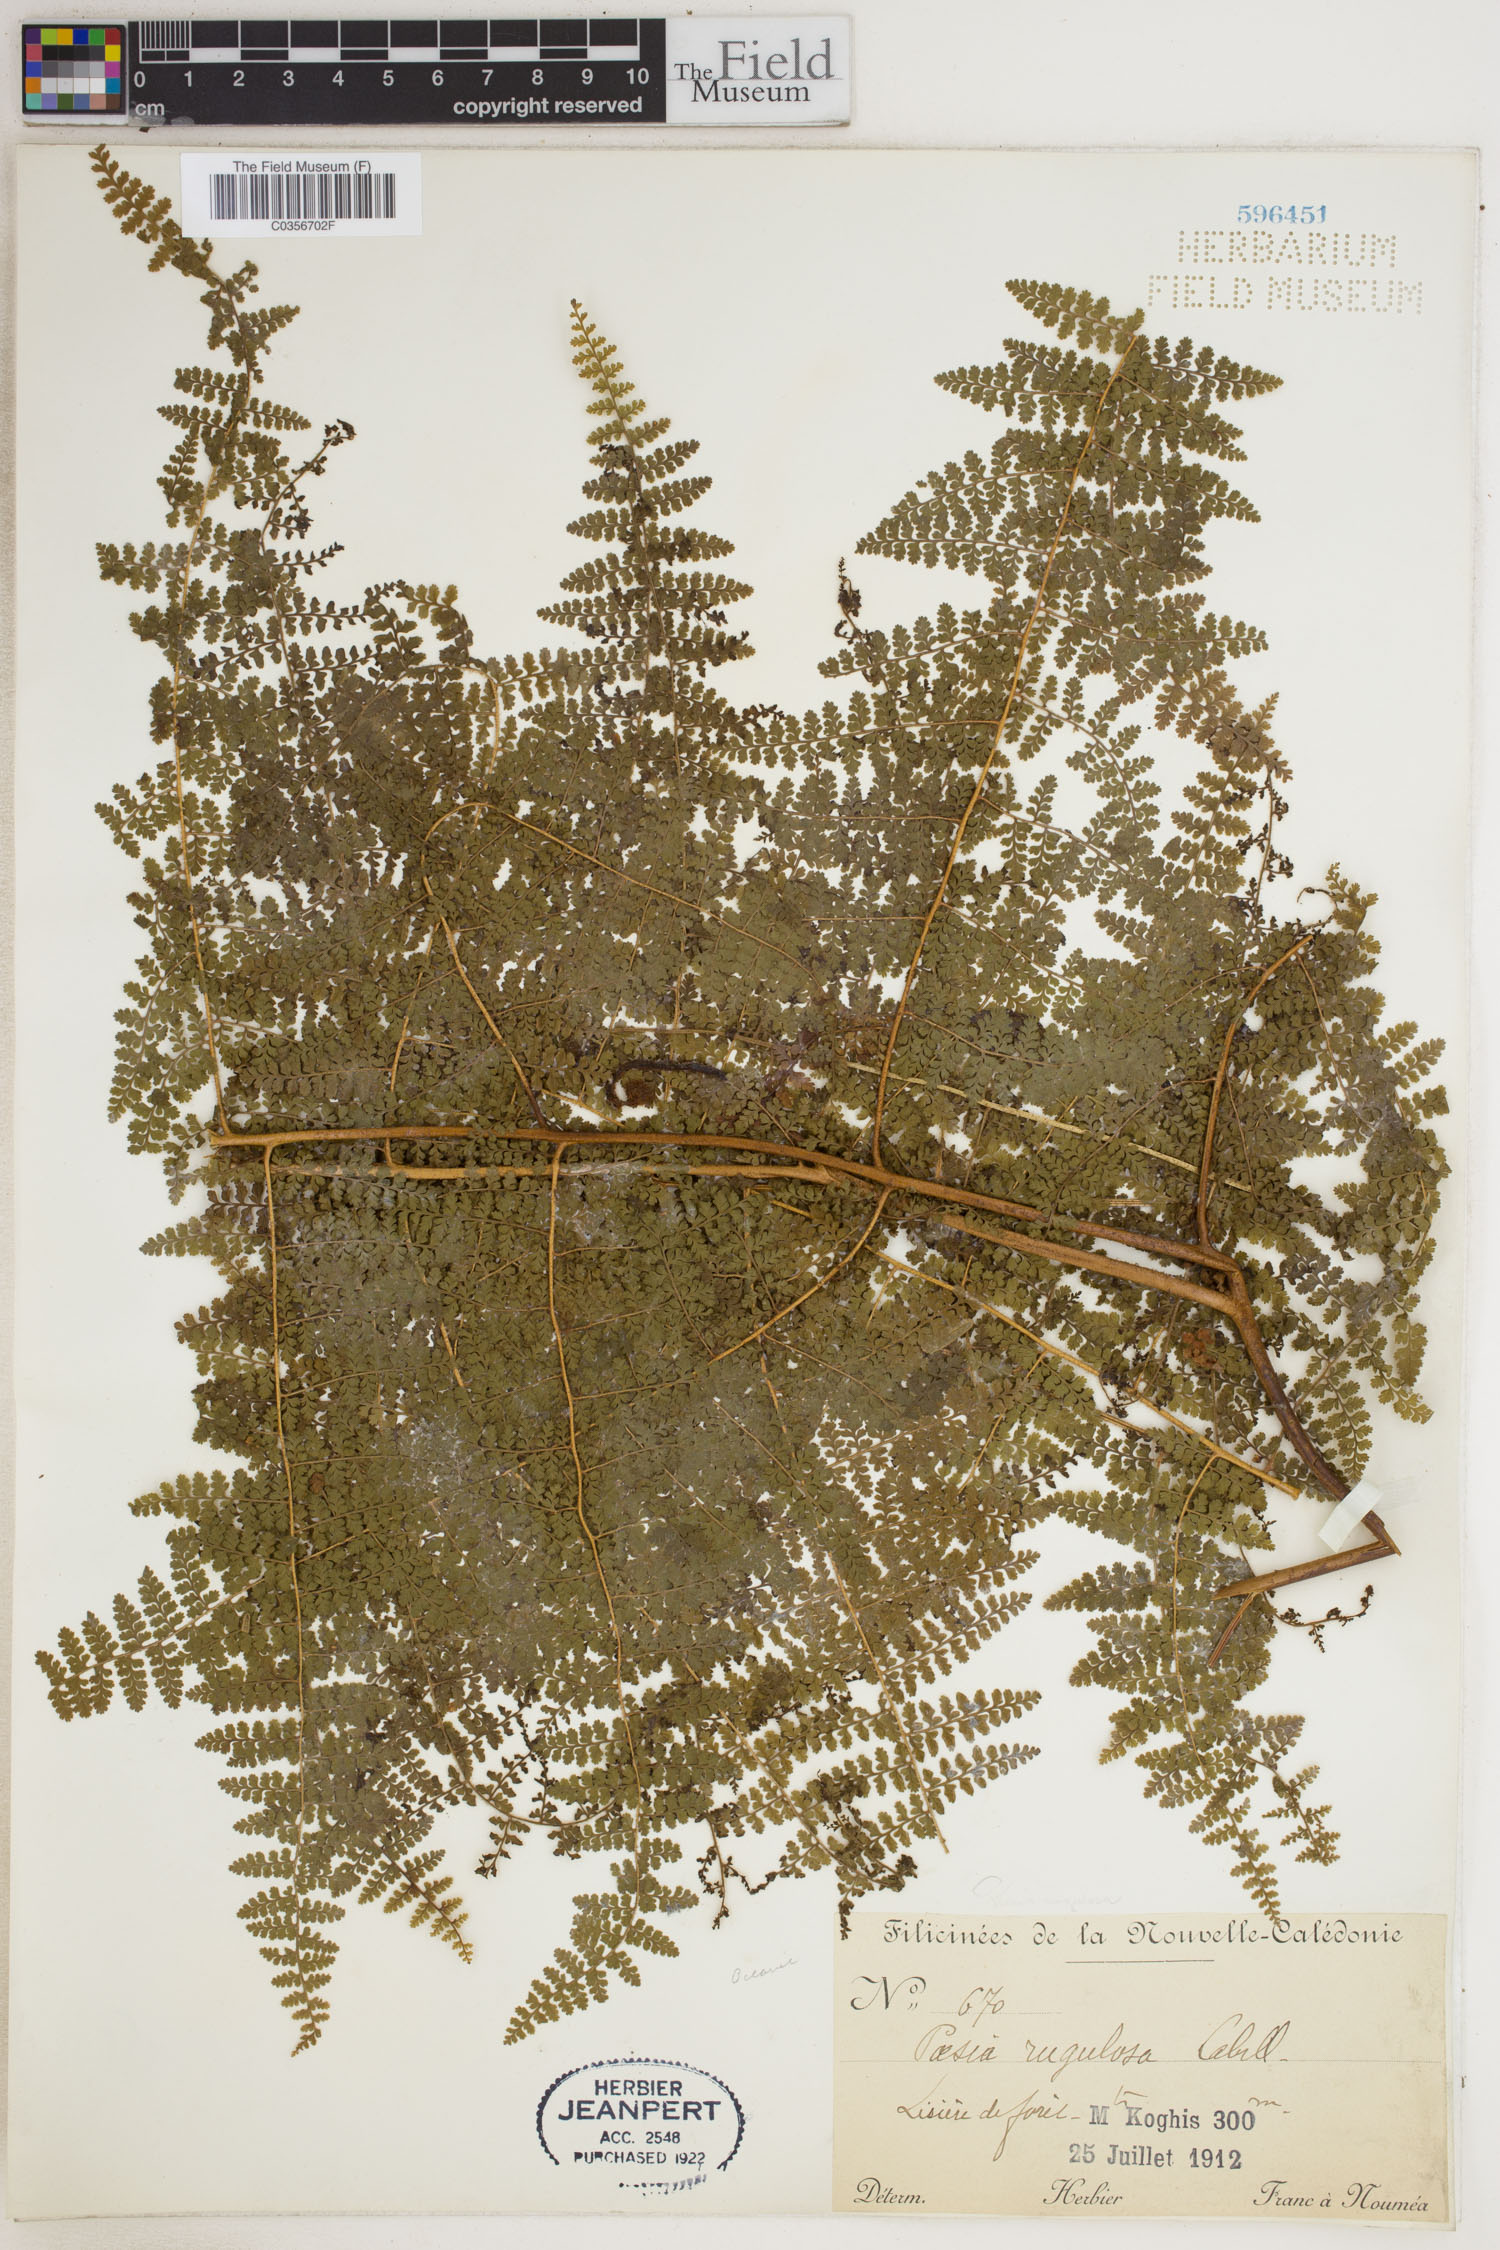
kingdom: Plantae
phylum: Tracheophyta
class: Polypodiopsida
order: Polypodiales
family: Dennstaedtiaceae
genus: Paesia
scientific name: Paesia rugulosa
